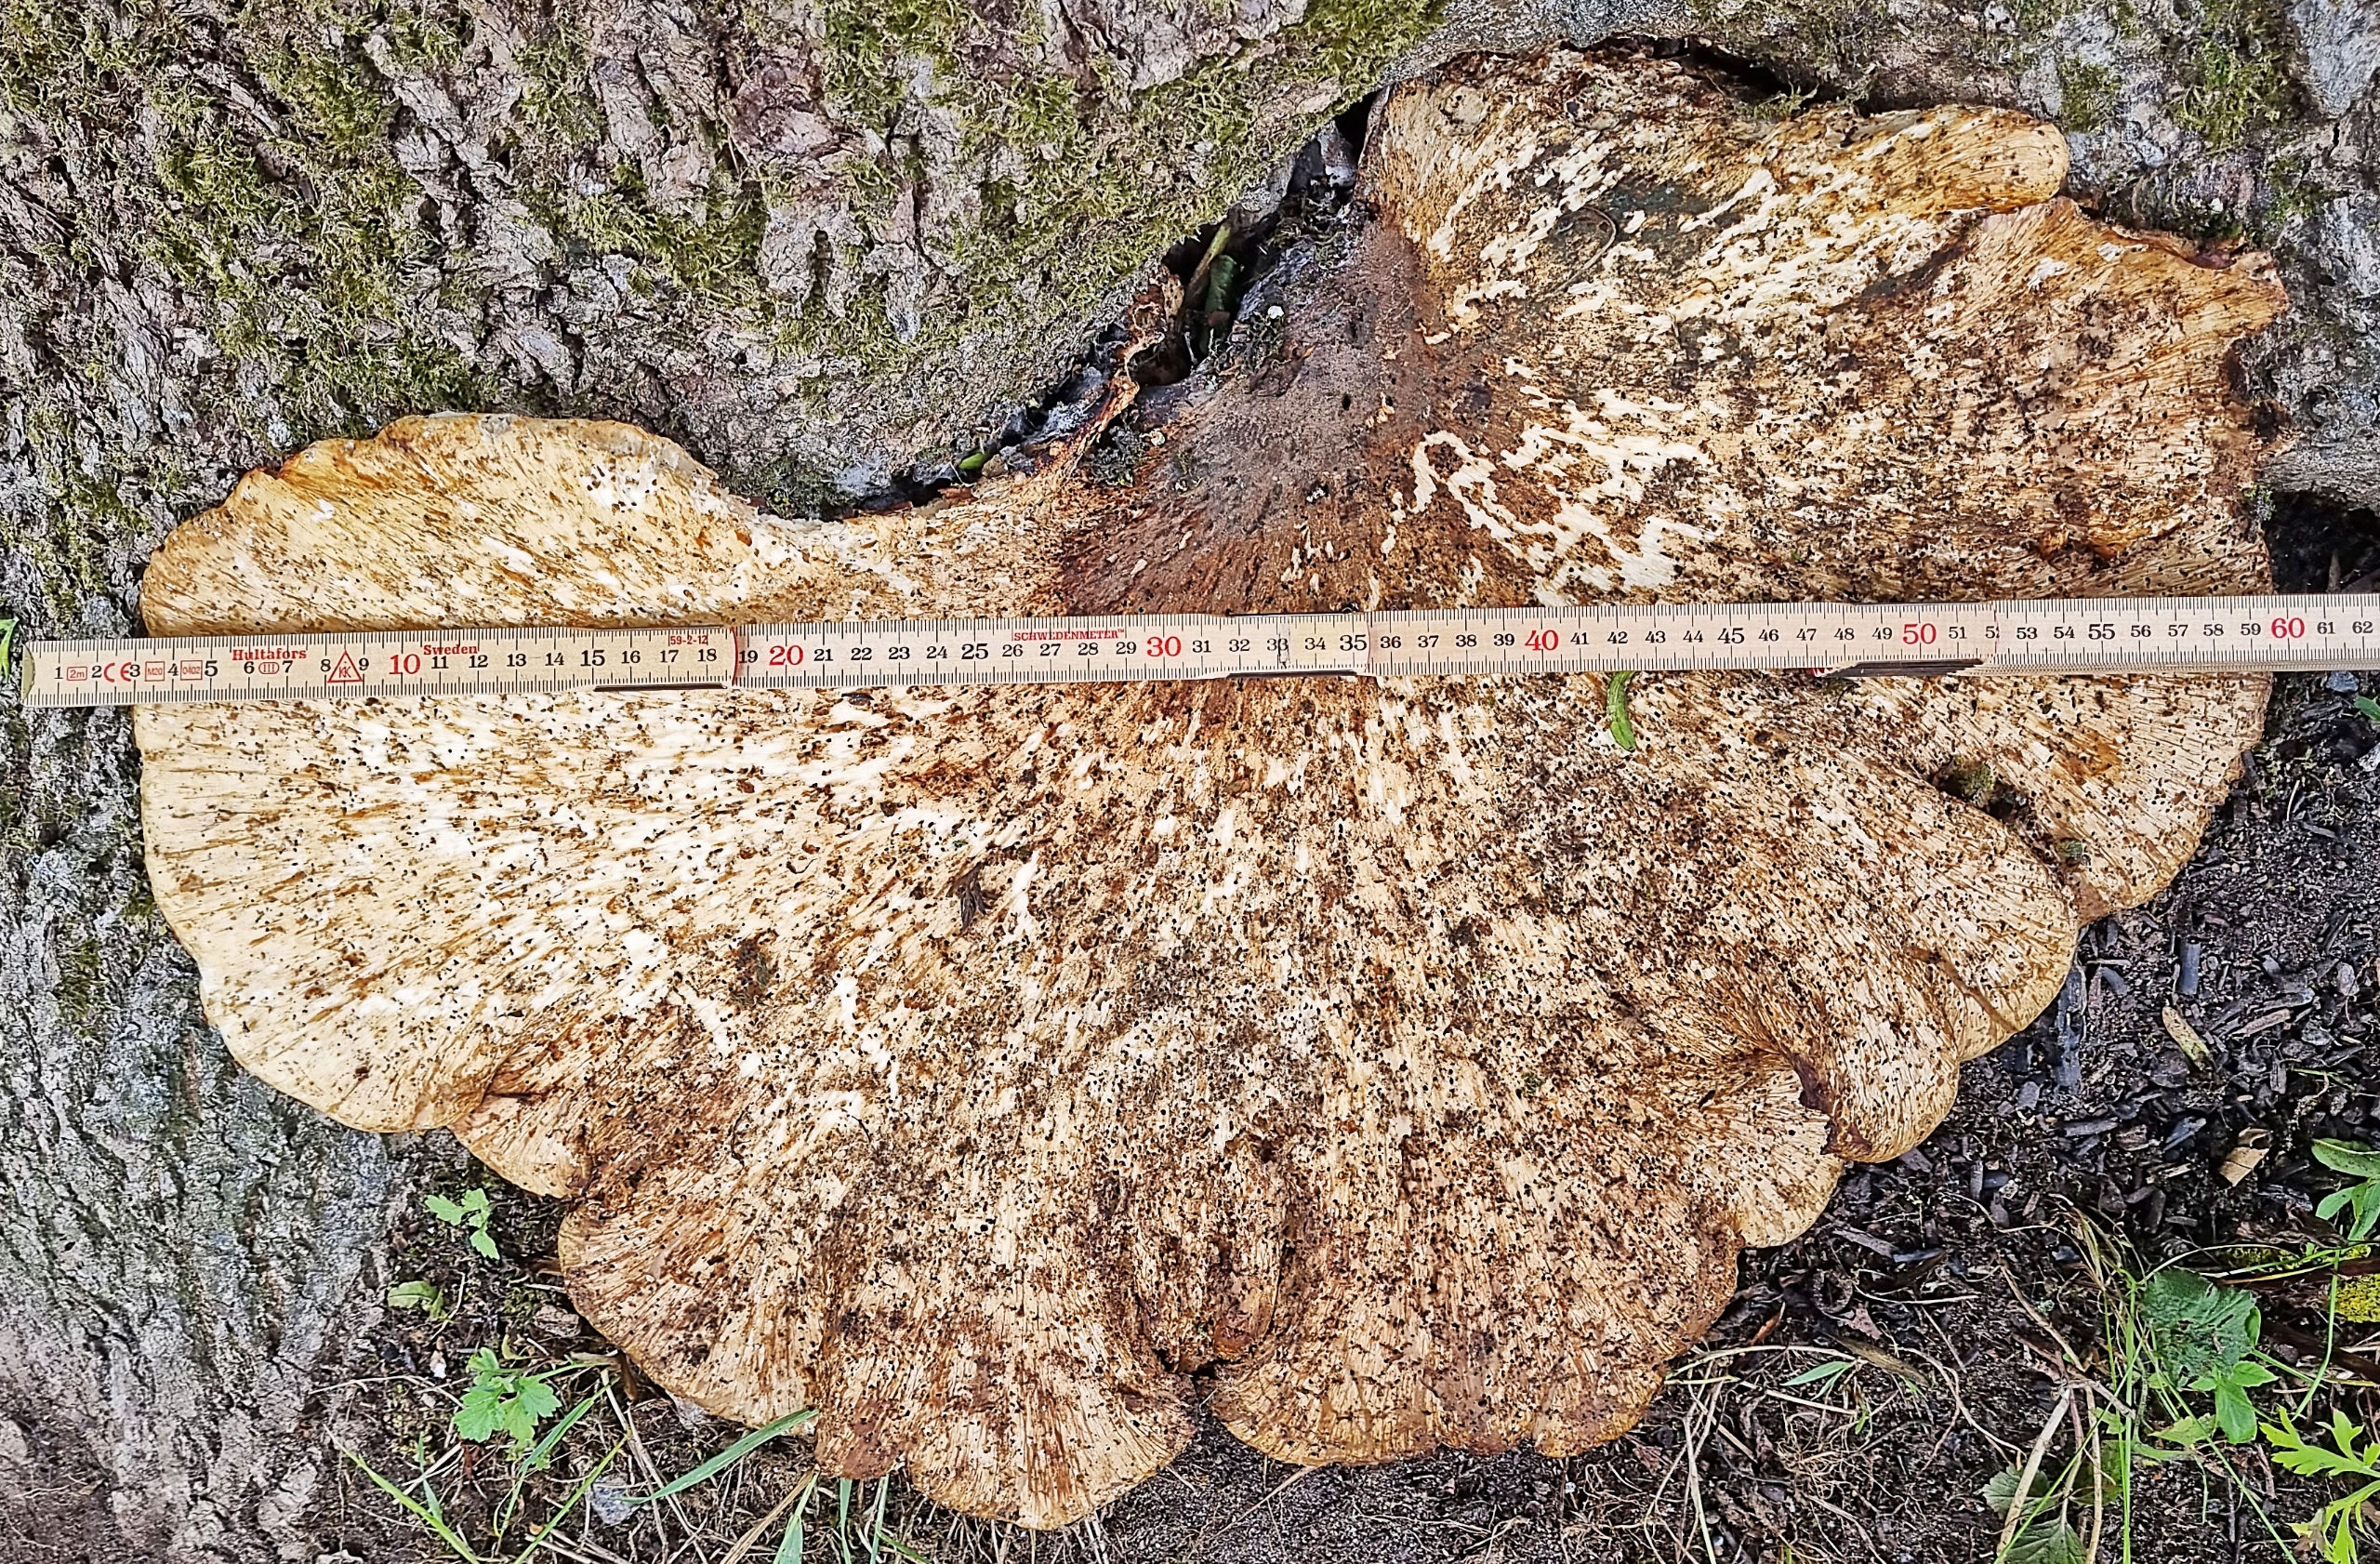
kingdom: Fungi
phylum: Basidiomycota
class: Agaricomycetes
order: Polyporales
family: Polyporaceae
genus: Cerioporus
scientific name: Cerioporus squamosus
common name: Skællet stilkporesvamp
